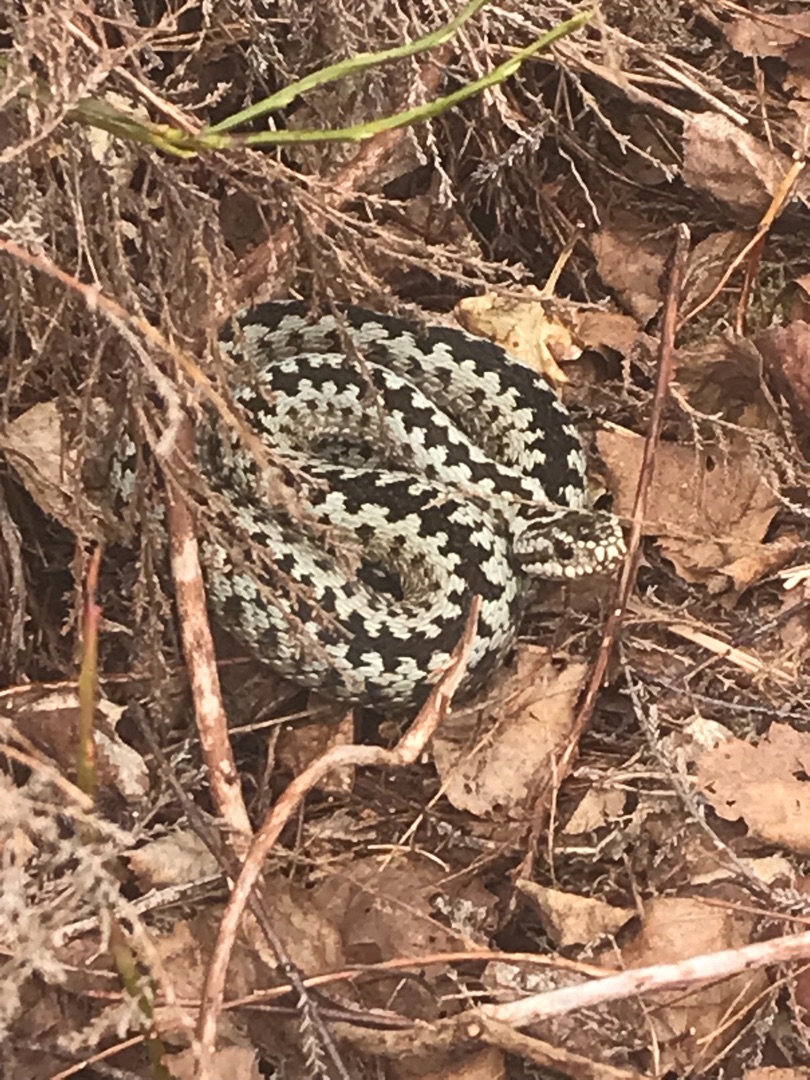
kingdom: Animalia
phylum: Chordata
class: Squamata
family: Viperidae
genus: Vipera
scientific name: Vipera berus
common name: Hugorm
